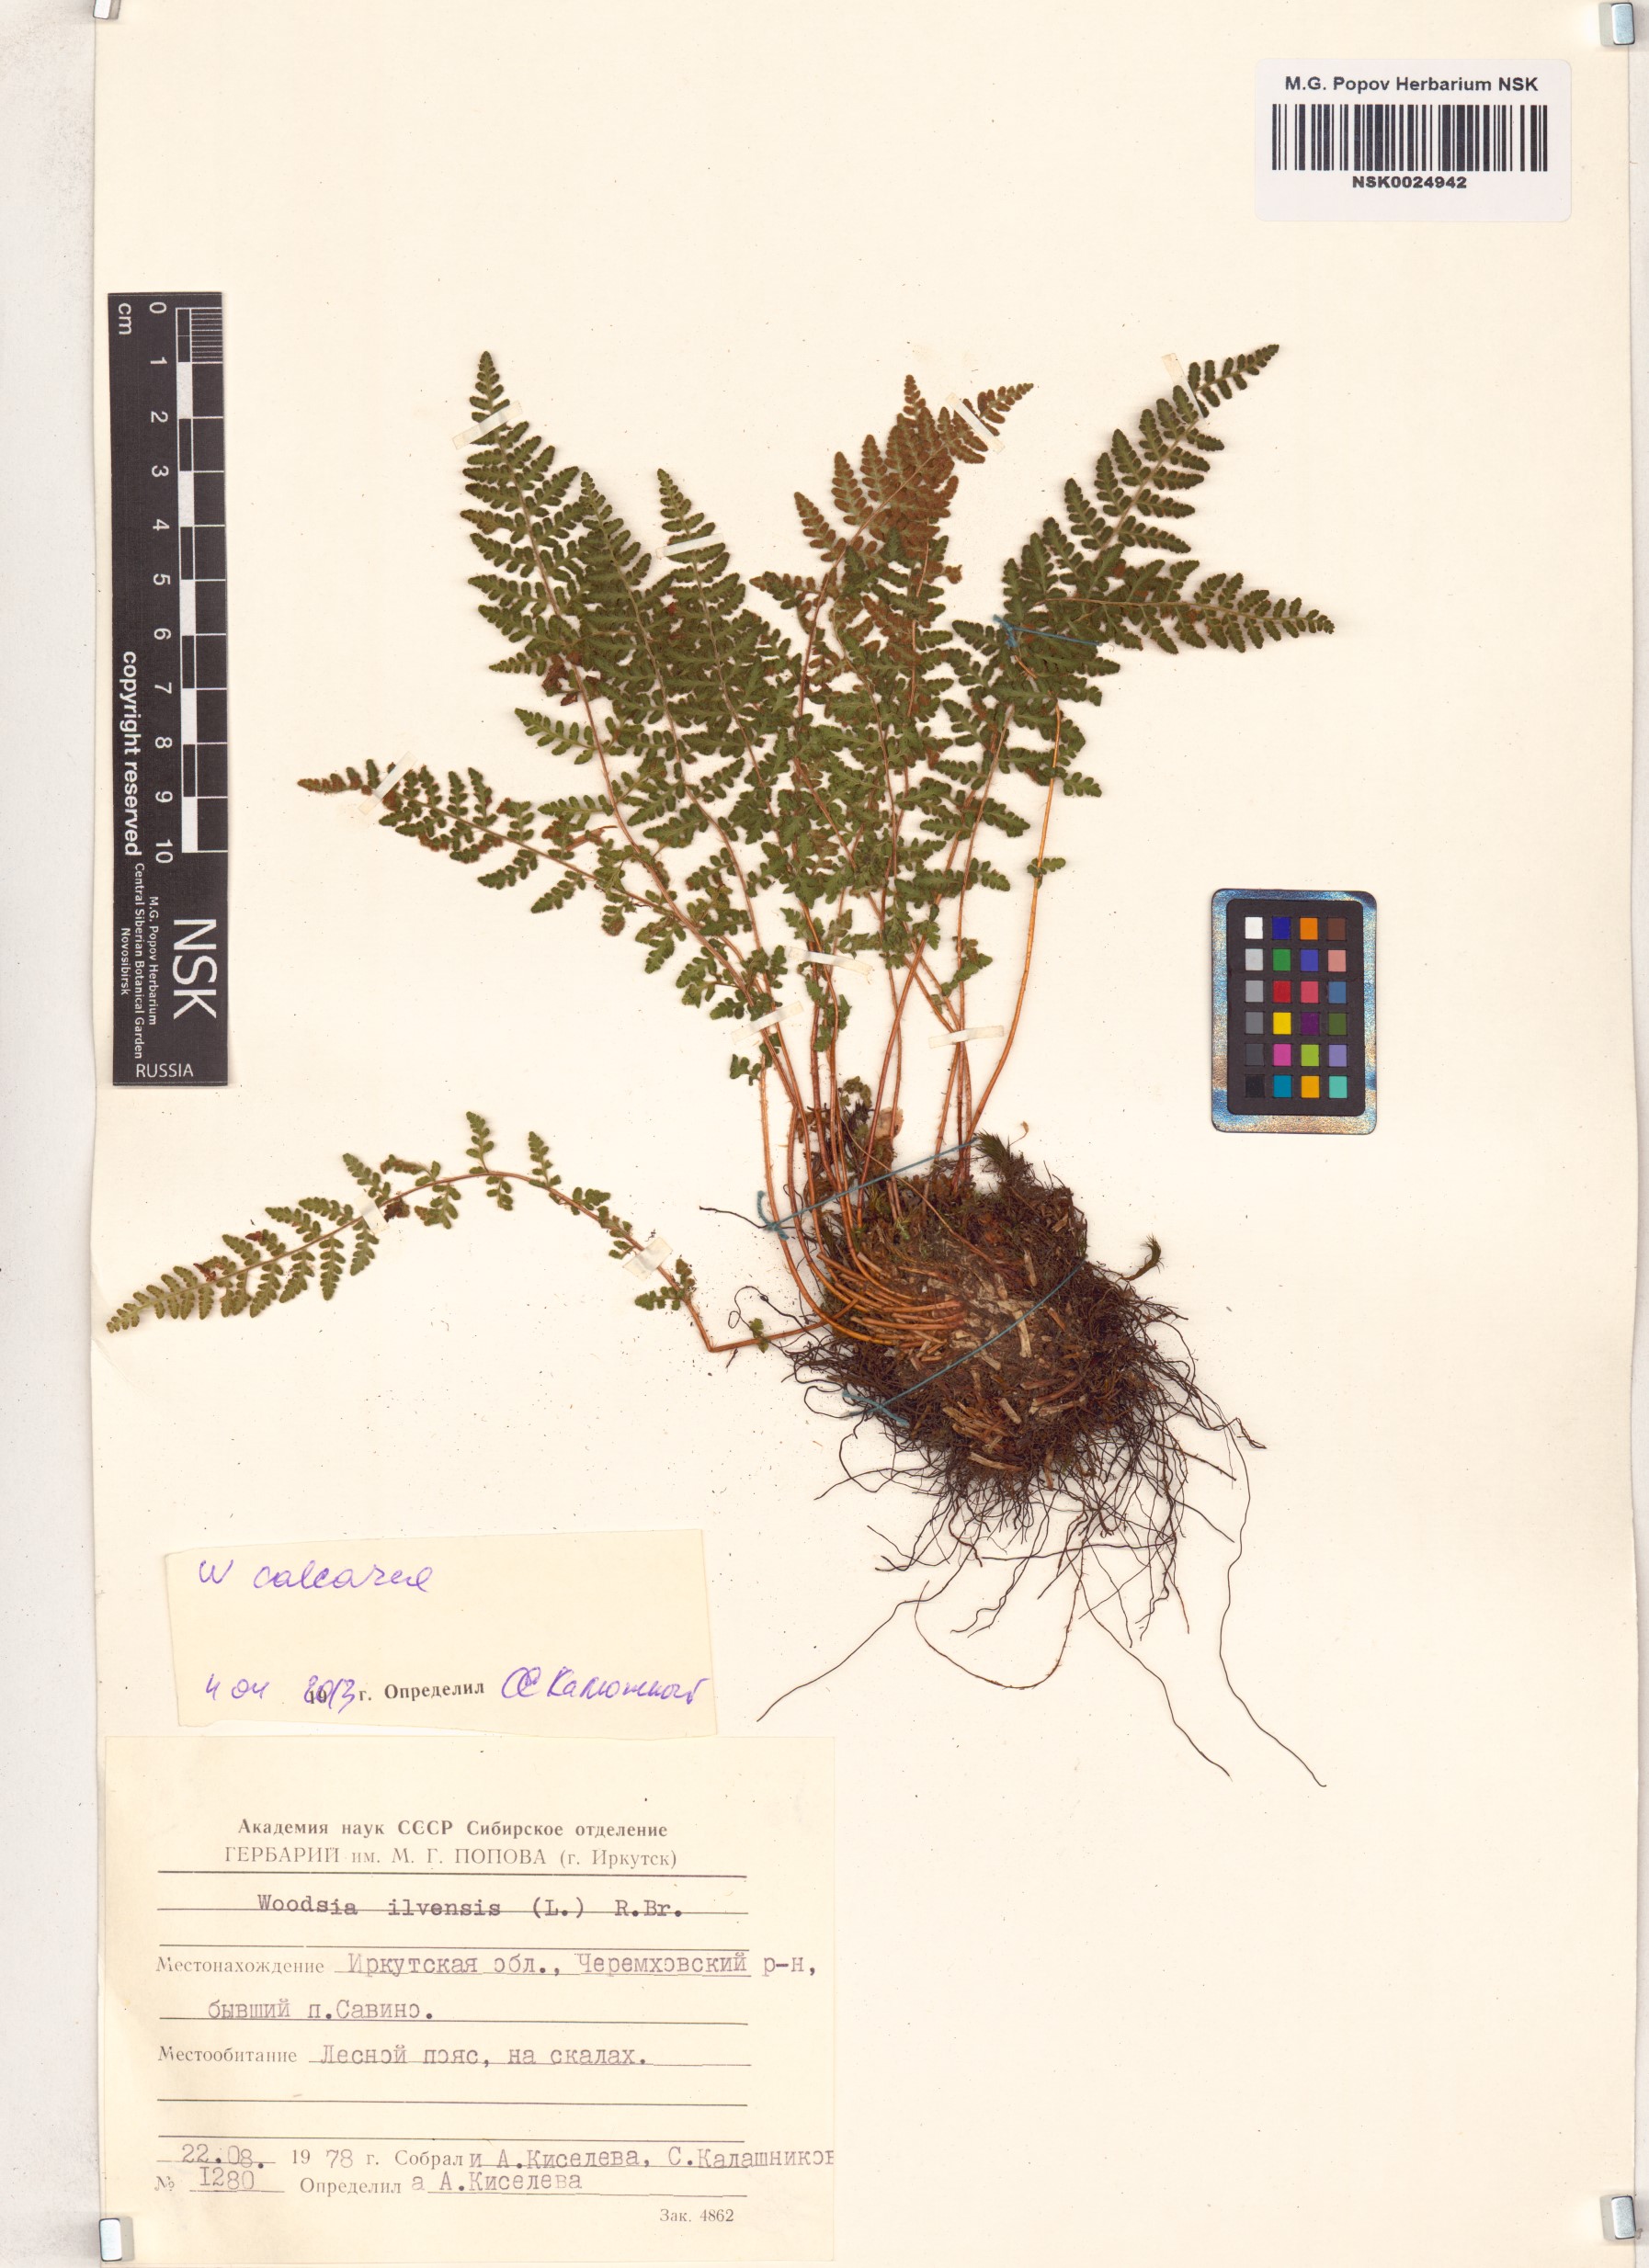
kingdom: Plantae
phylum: Tracheophyta
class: Polypodiopsida
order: Polypodiales
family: Woodsiaceae
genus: Woodsia
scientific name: Woodsia calcarea
